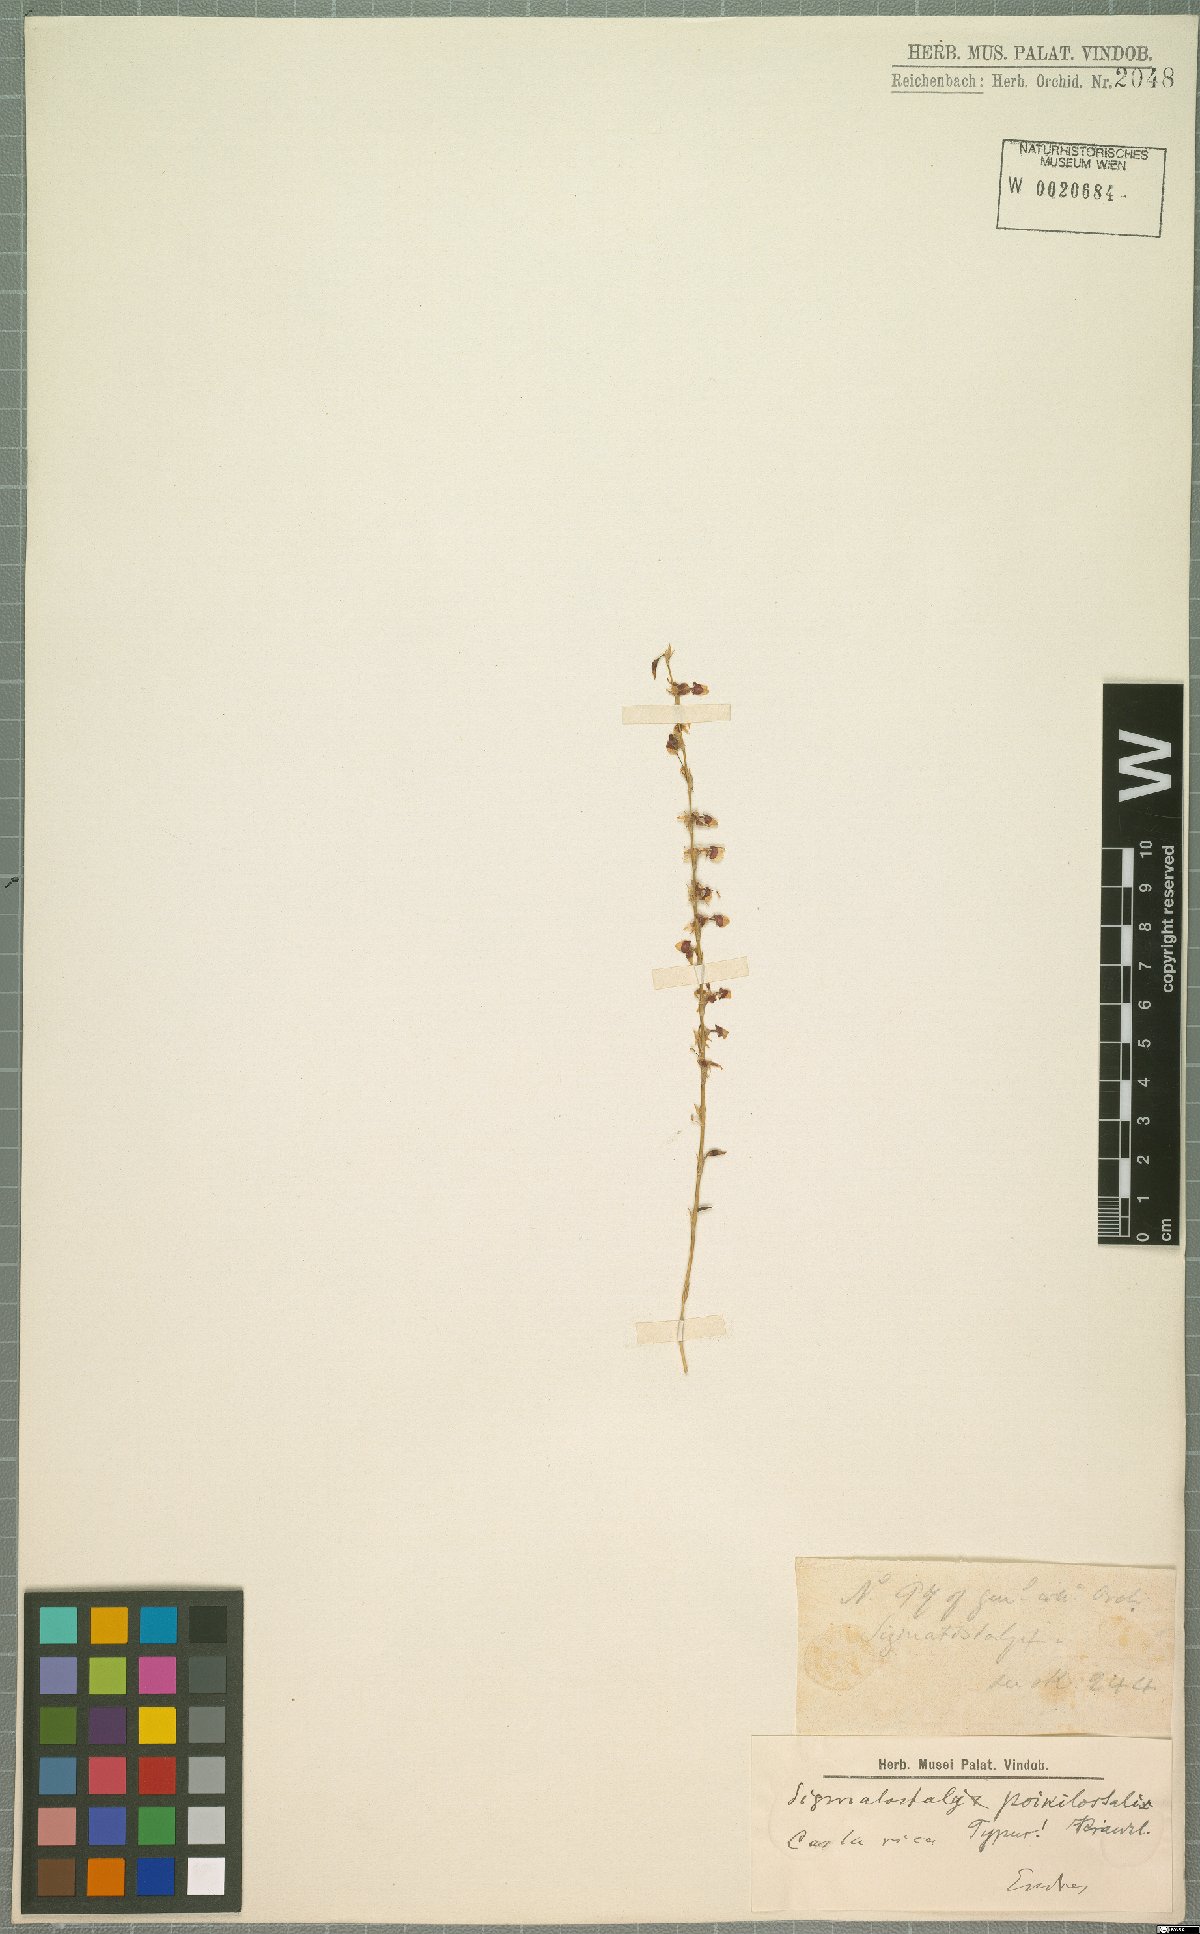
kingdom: Plantae
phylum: Tracheophyta
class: Liliopsida
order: Asparagales
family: Orchidaceae
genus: Oncidium
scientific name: Oncidium poikilostalix
